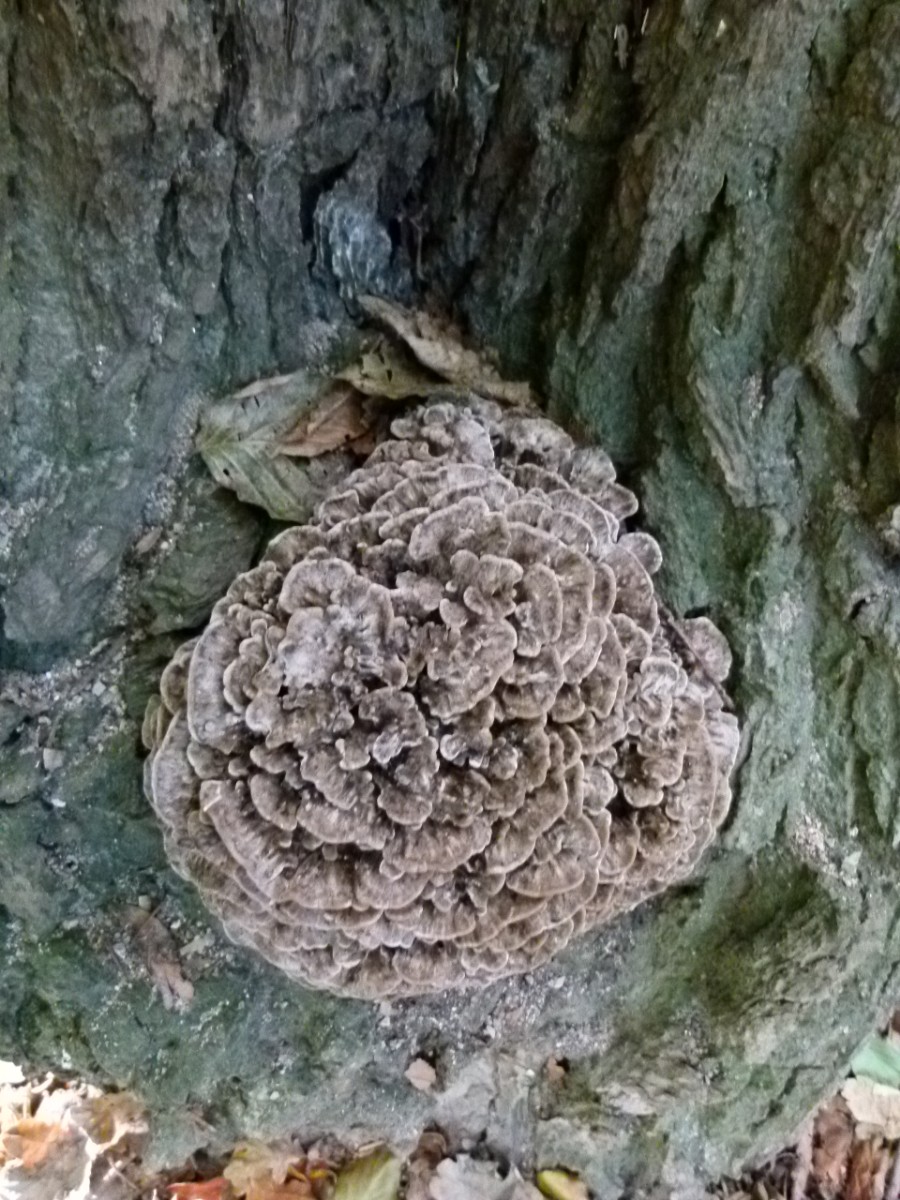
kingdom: Fungi
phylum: Basidiomycota
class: Agaricomycetes
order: Polyporales
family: Grifolaceae
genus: Grifola
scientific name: Grifola frondosa
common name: tueporesvamp
